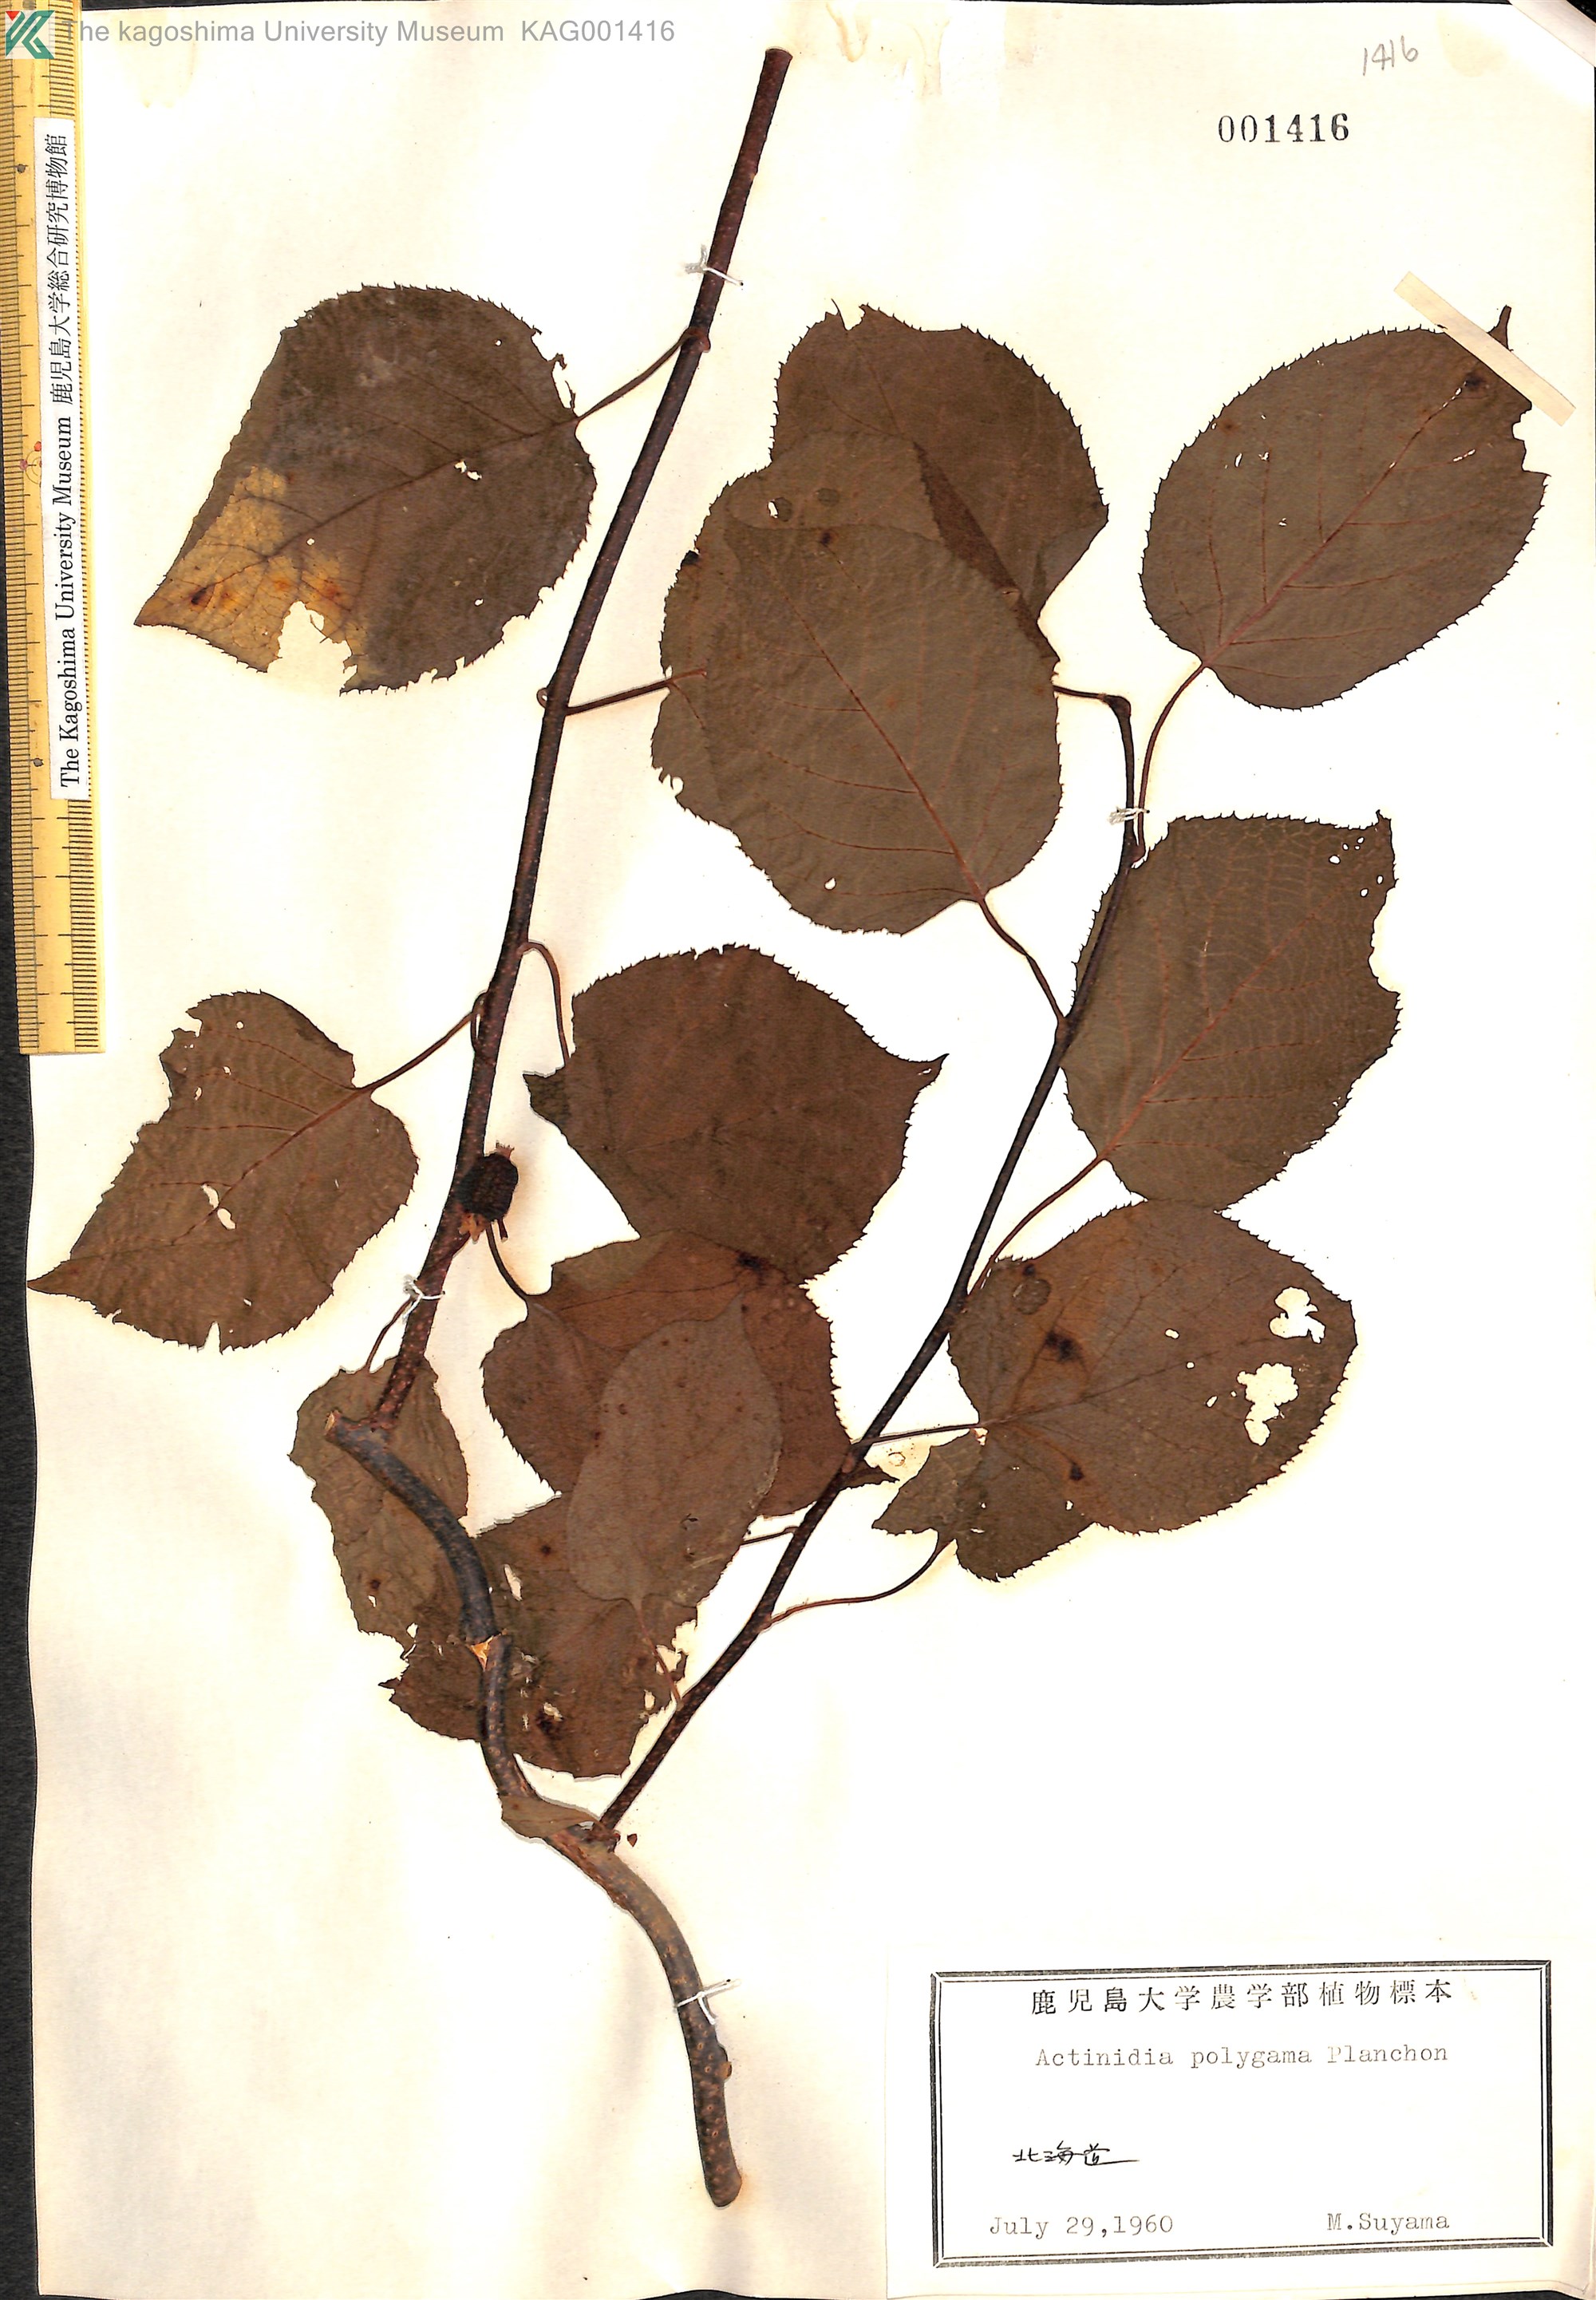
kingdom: Plantae
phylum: Tracheophyta
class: Magnoliopsida
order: Ericales
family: Actinidiaceae
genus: Actinidia
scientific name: Actinidia polygama
